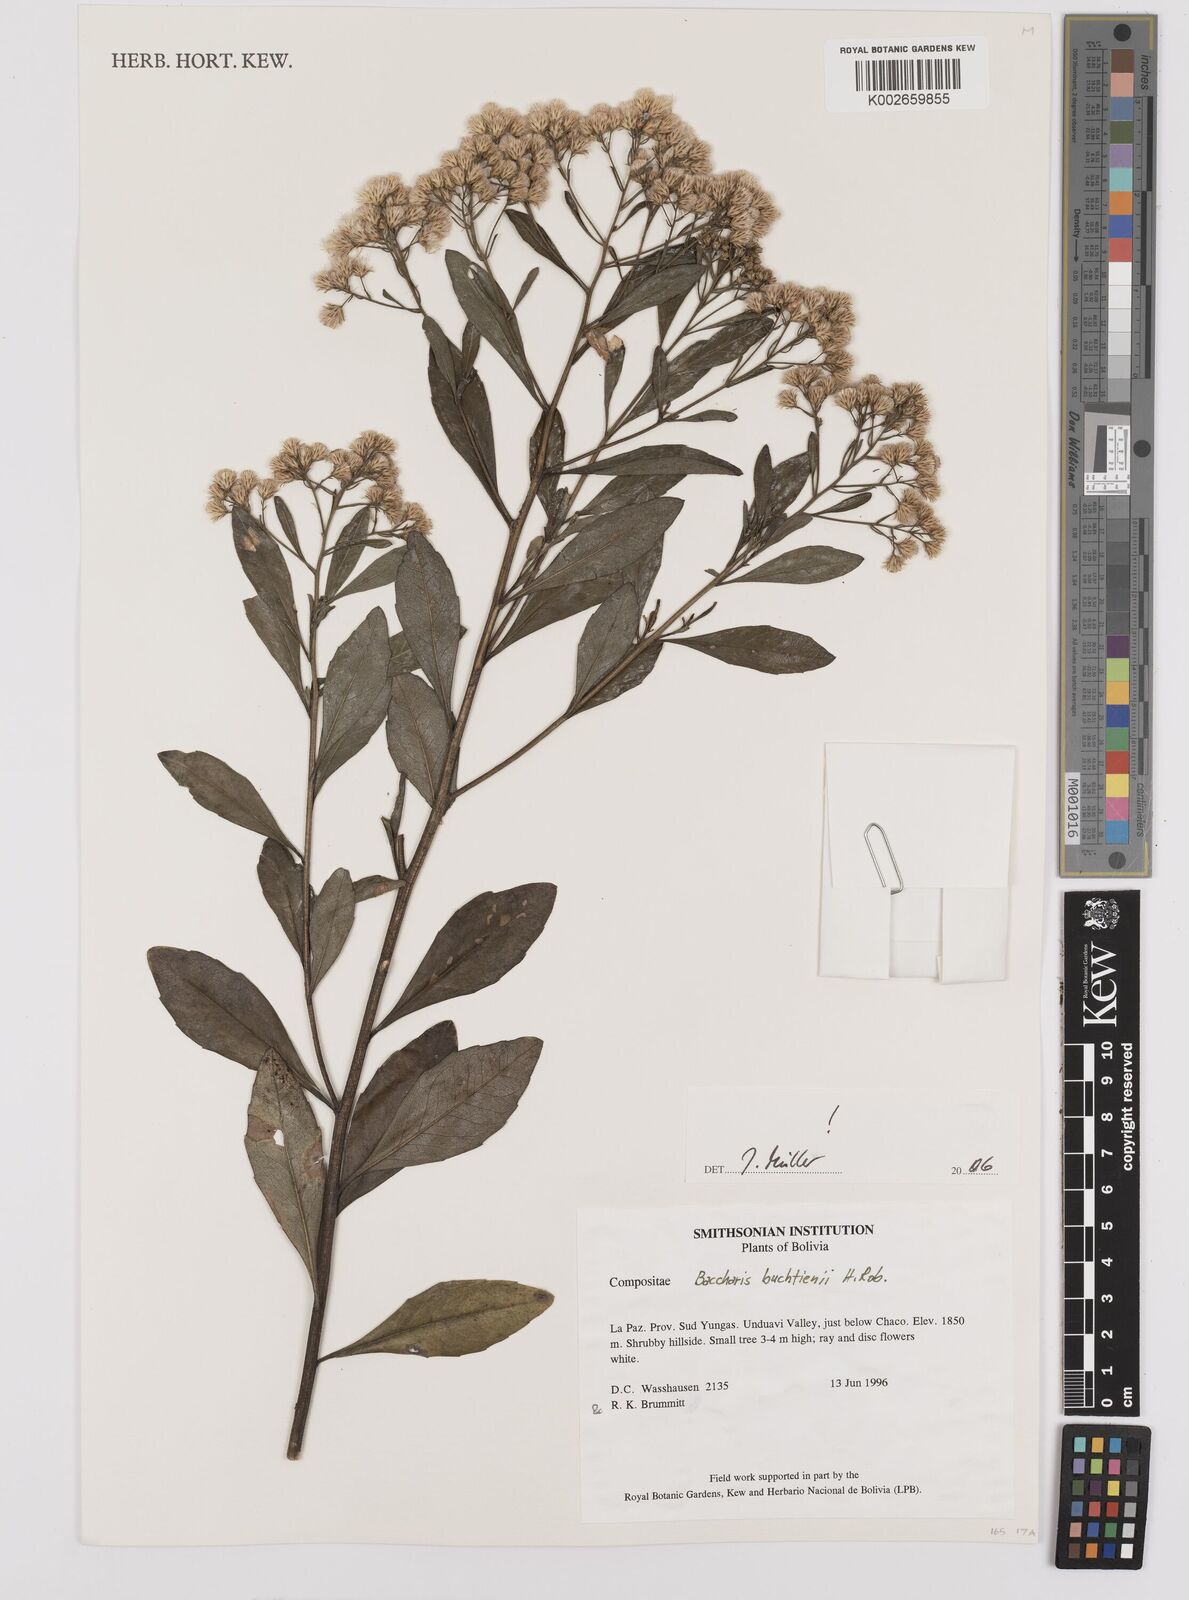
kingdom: Plantae
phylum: Tracheophyta
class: Magnoliopsida
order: Asterales
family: Asteraceae
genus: Baccharis
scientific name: Baccharis buchtienii
